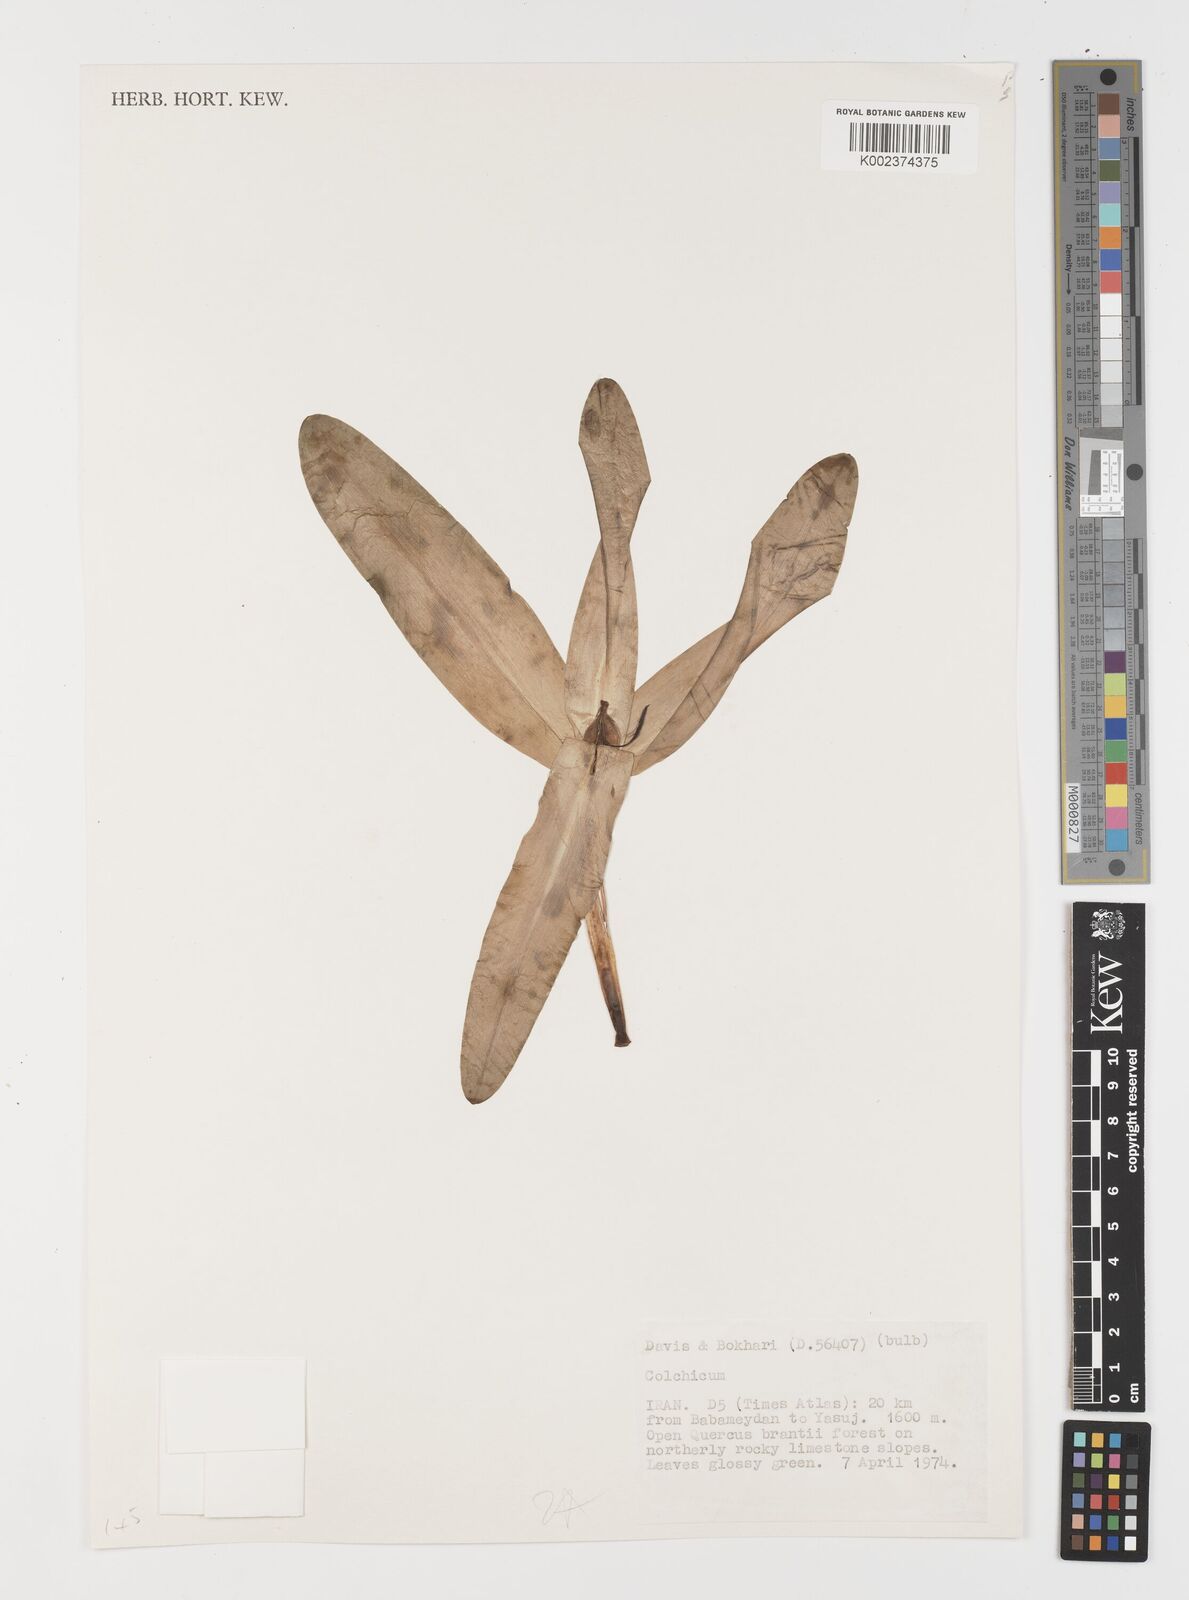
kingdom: Plantae
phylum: Tracheophyta
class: Liliopsida
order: Liliales
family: Colchicaceae
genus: Colchicum
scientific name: Colchicum
